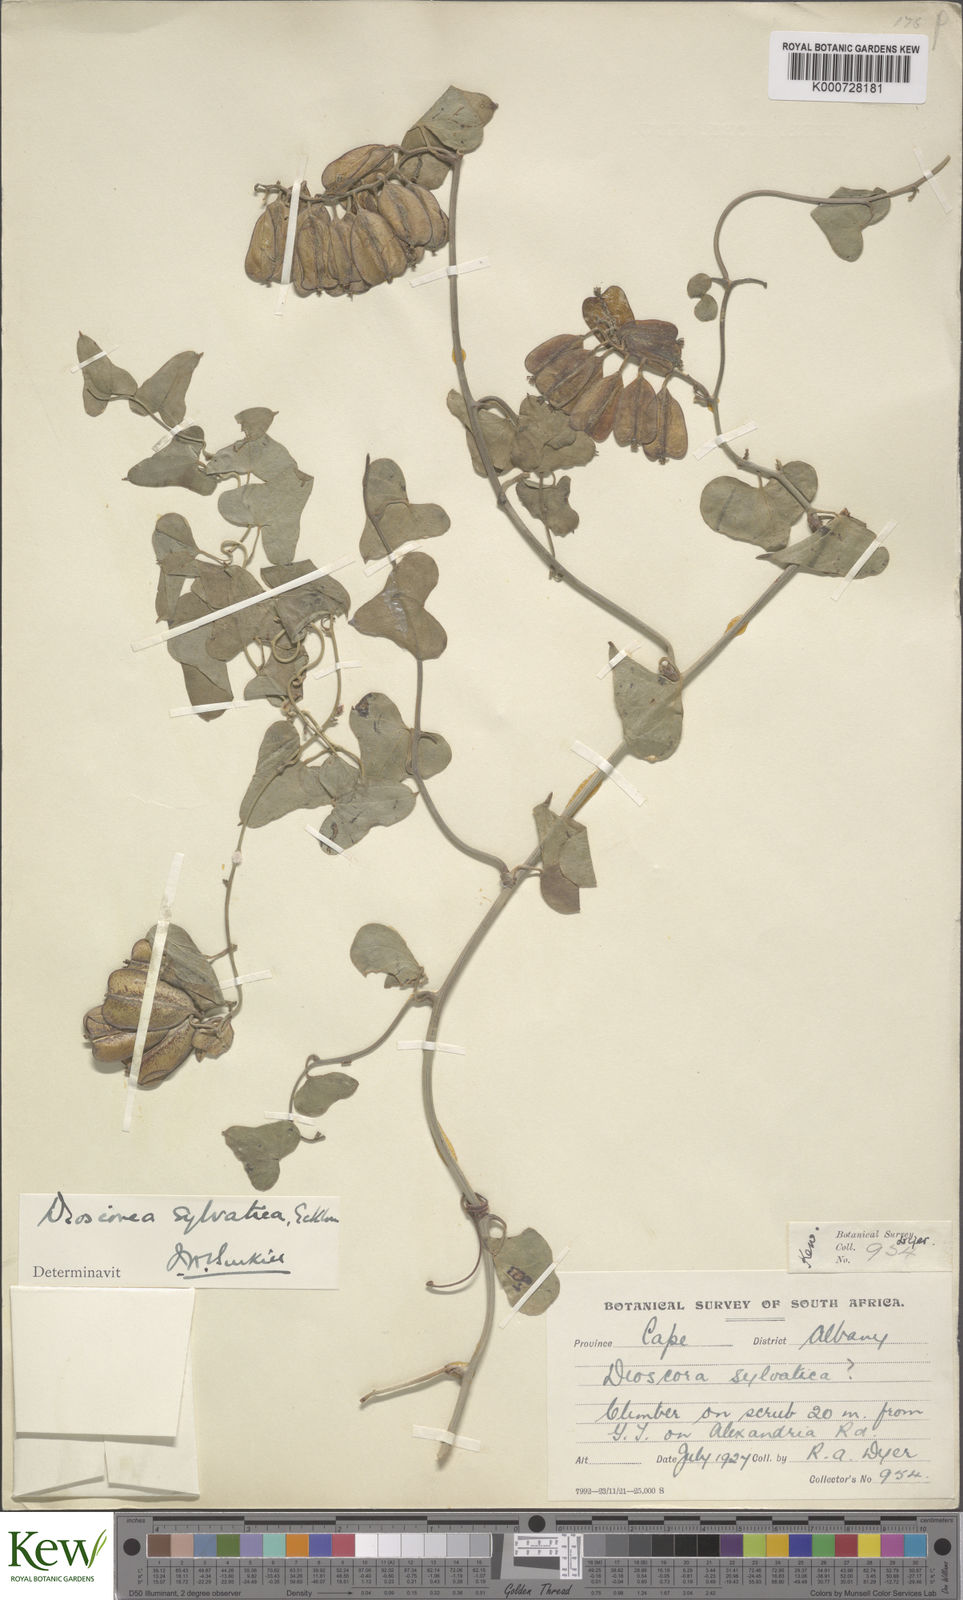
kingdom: Plantae
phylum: Tracheophyta
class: Liliopsida
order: Dioscoreales
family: Dioscoreaceae
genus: Dioscorea
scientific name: Dioscorea sylvatica
